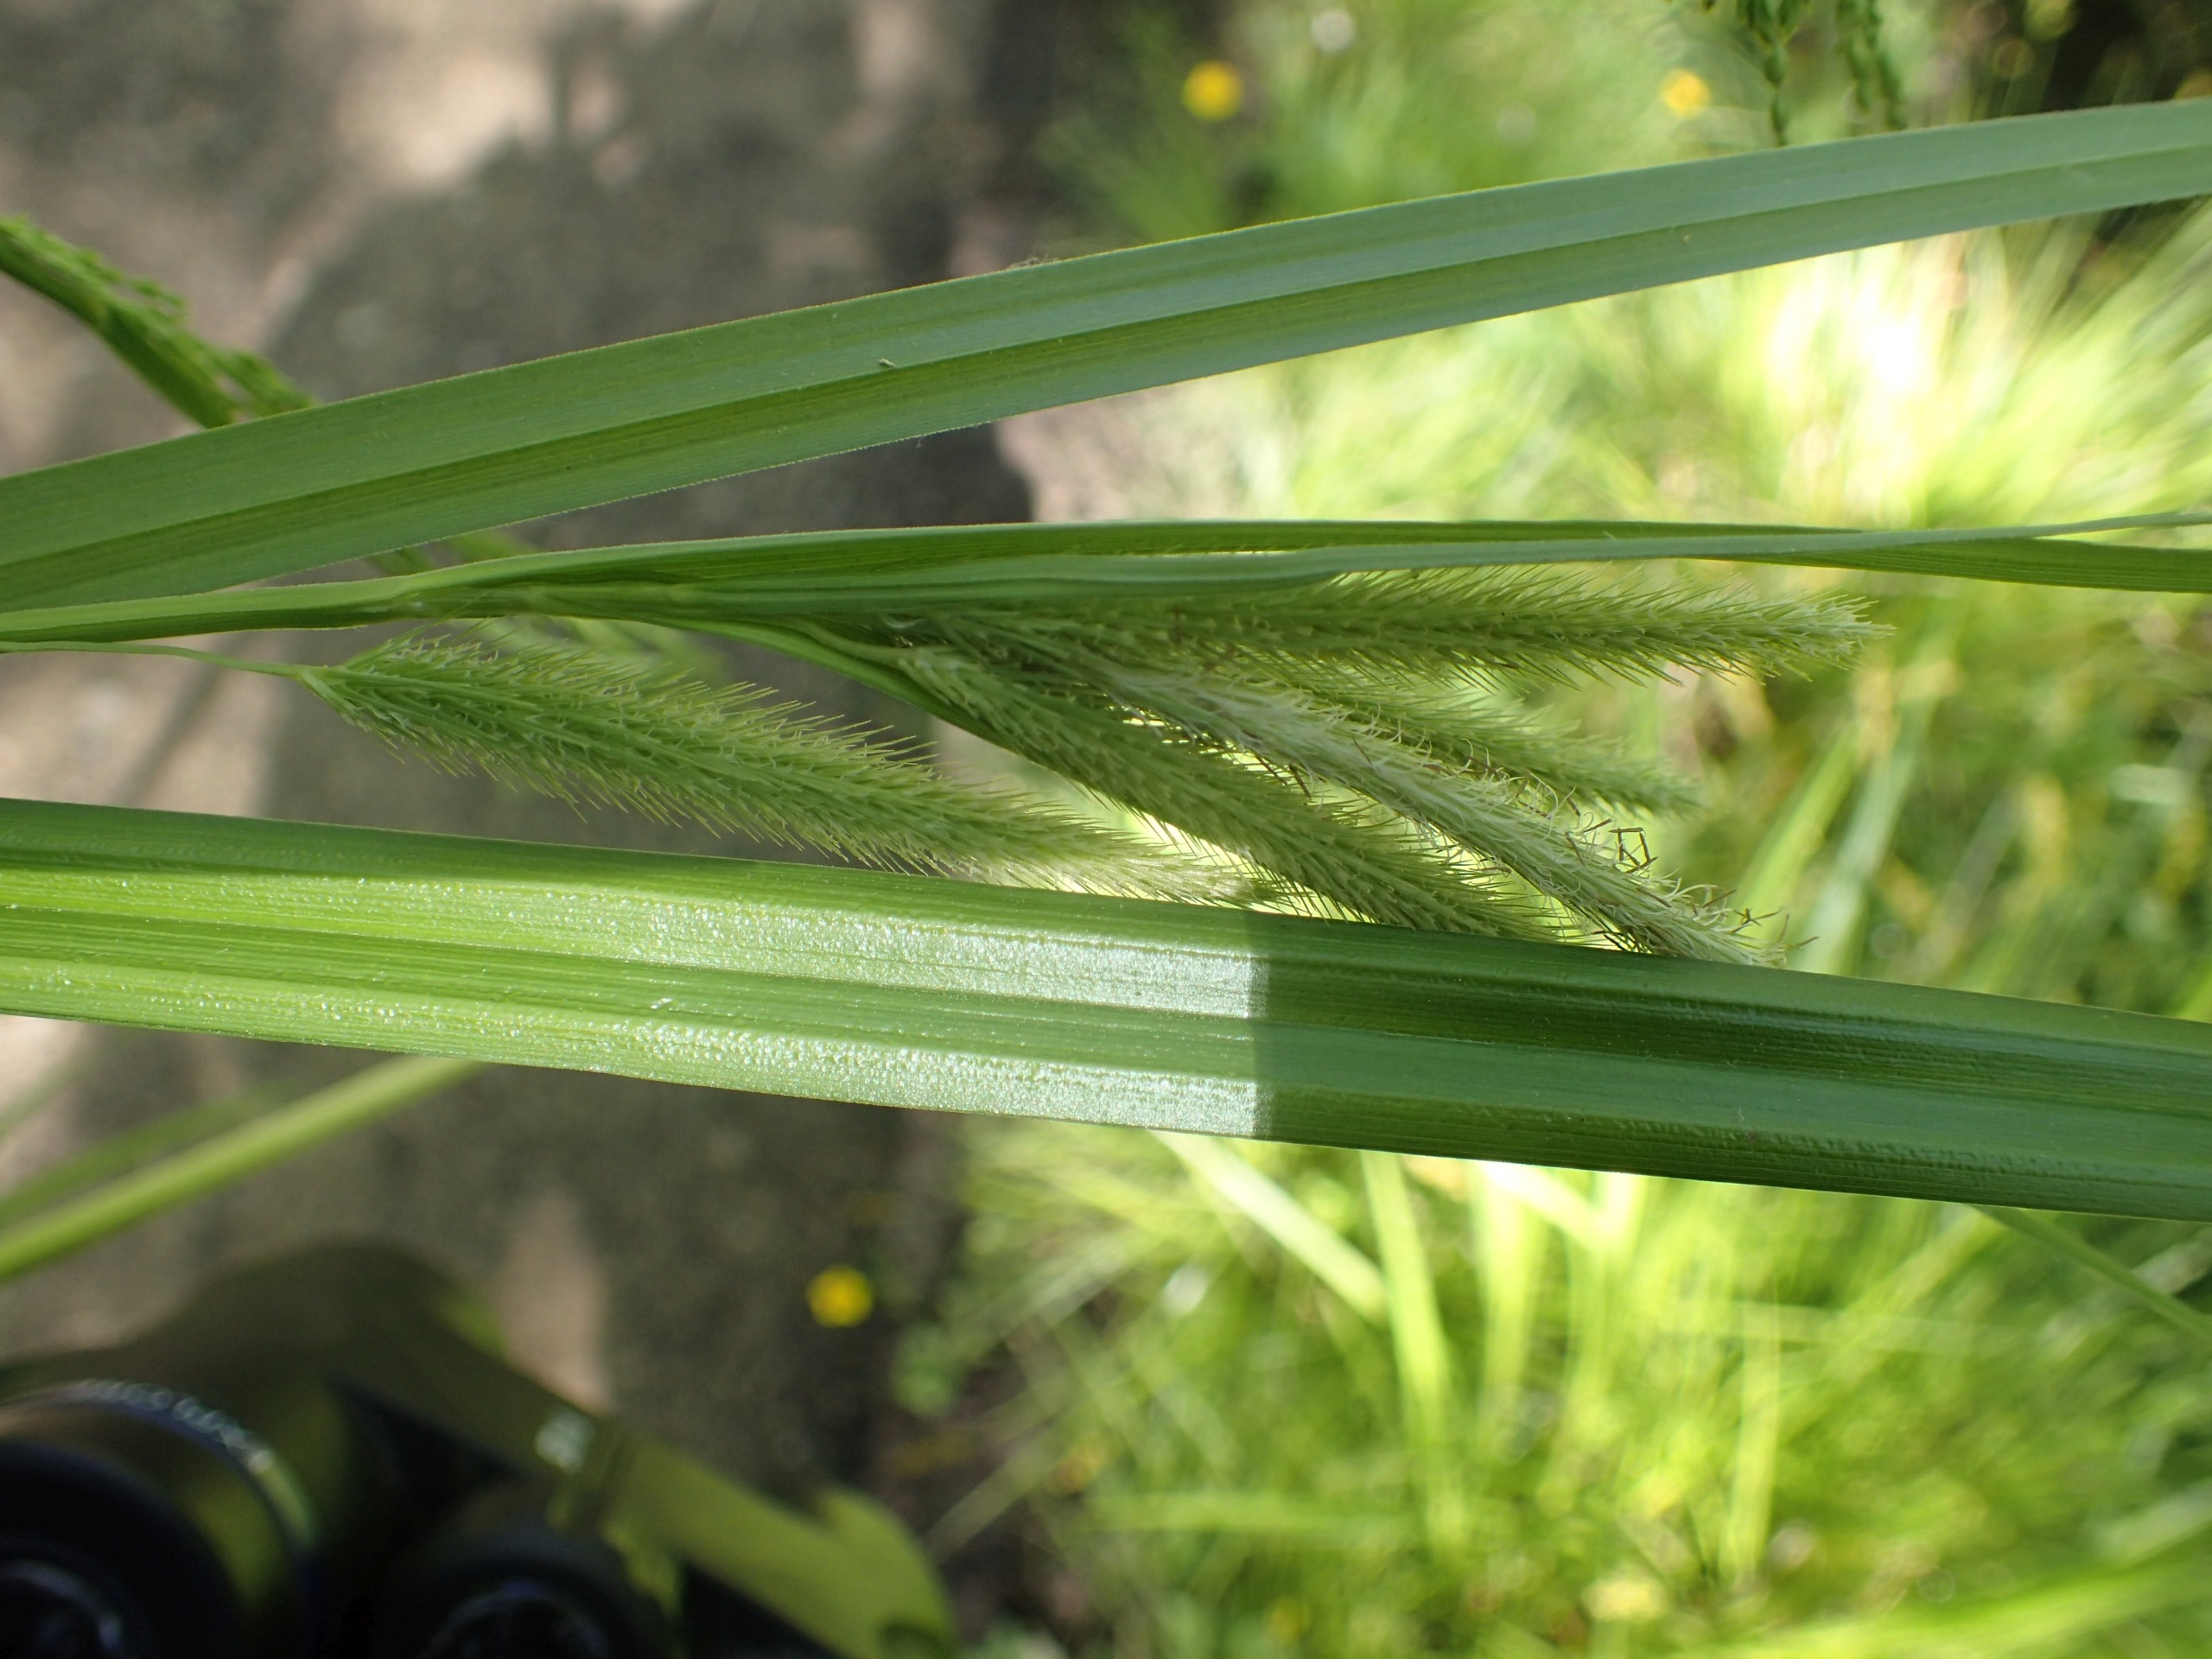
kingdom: Plantae
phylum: Tracheophyta
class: Liliopsida
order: Poales
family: Cyperaceae
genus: Carex
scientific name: Carex pseudocyperus
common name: Knippe-star
